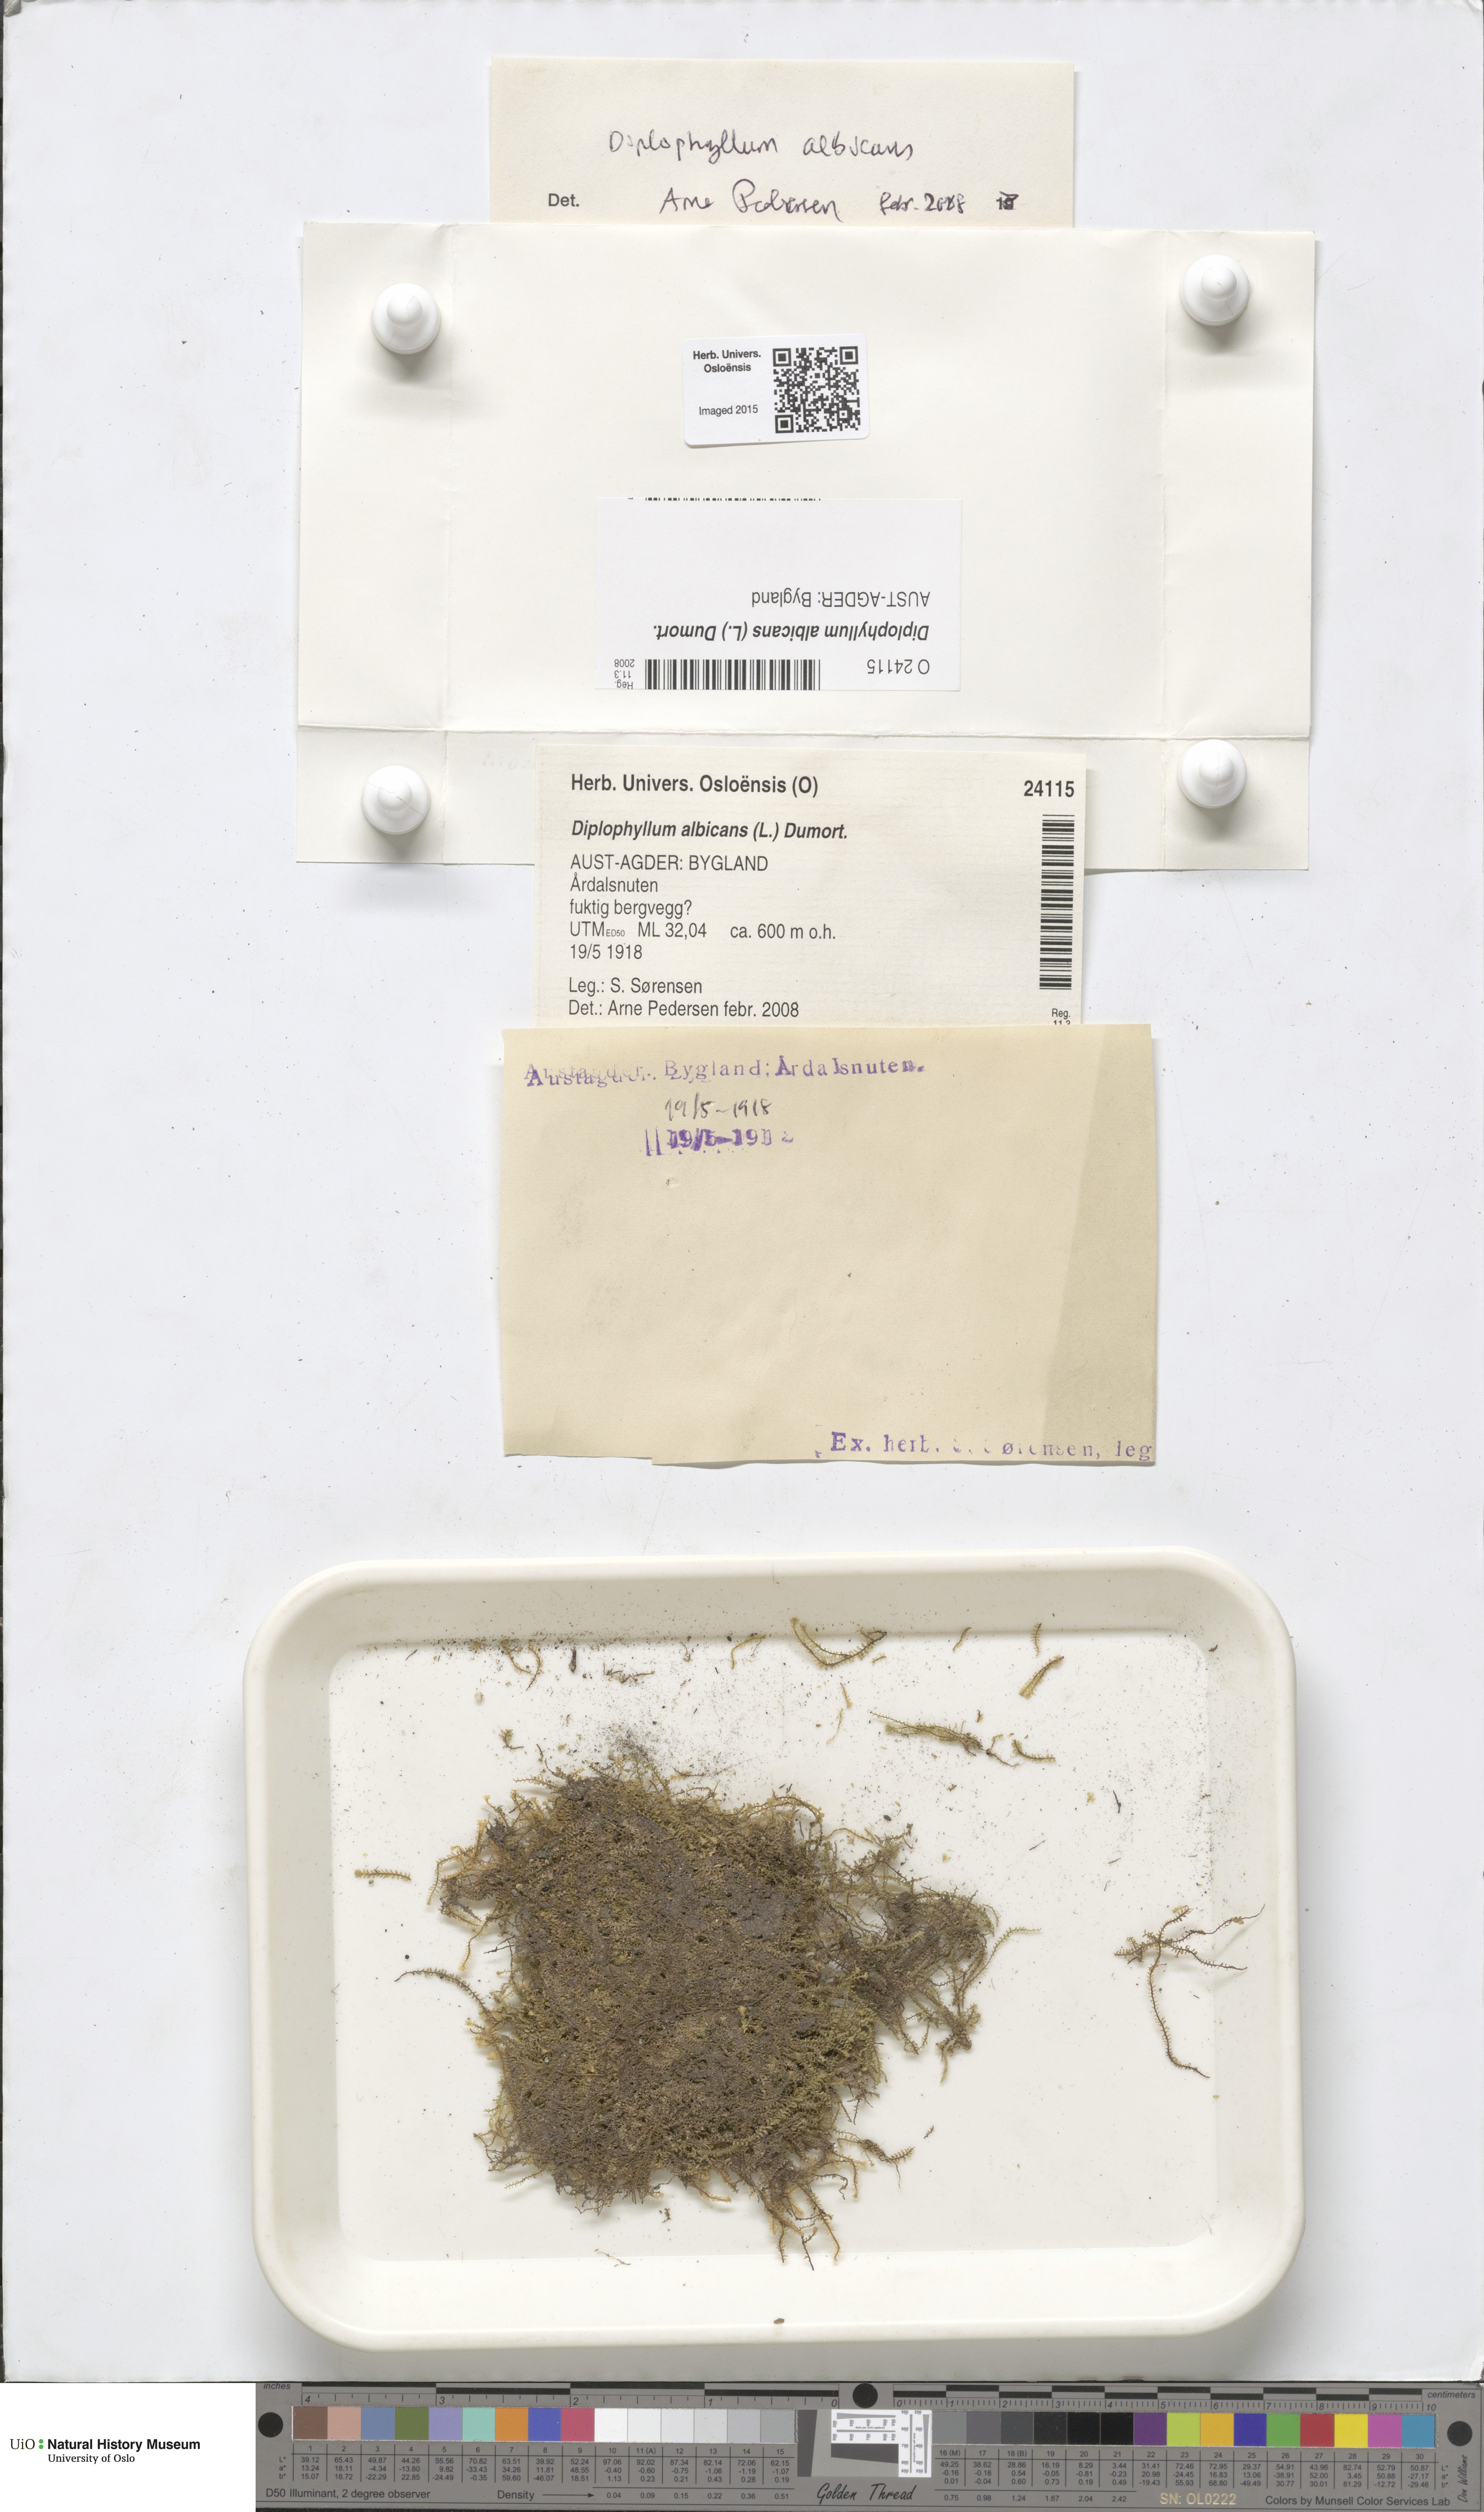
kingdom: Plantae
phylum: Marchantiophyta
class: Jungermanniopsida
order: Jungermanniales
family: Scapaniaceae
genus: Diplophyllum
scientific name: Diplophyllum albicans
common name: White earwort
